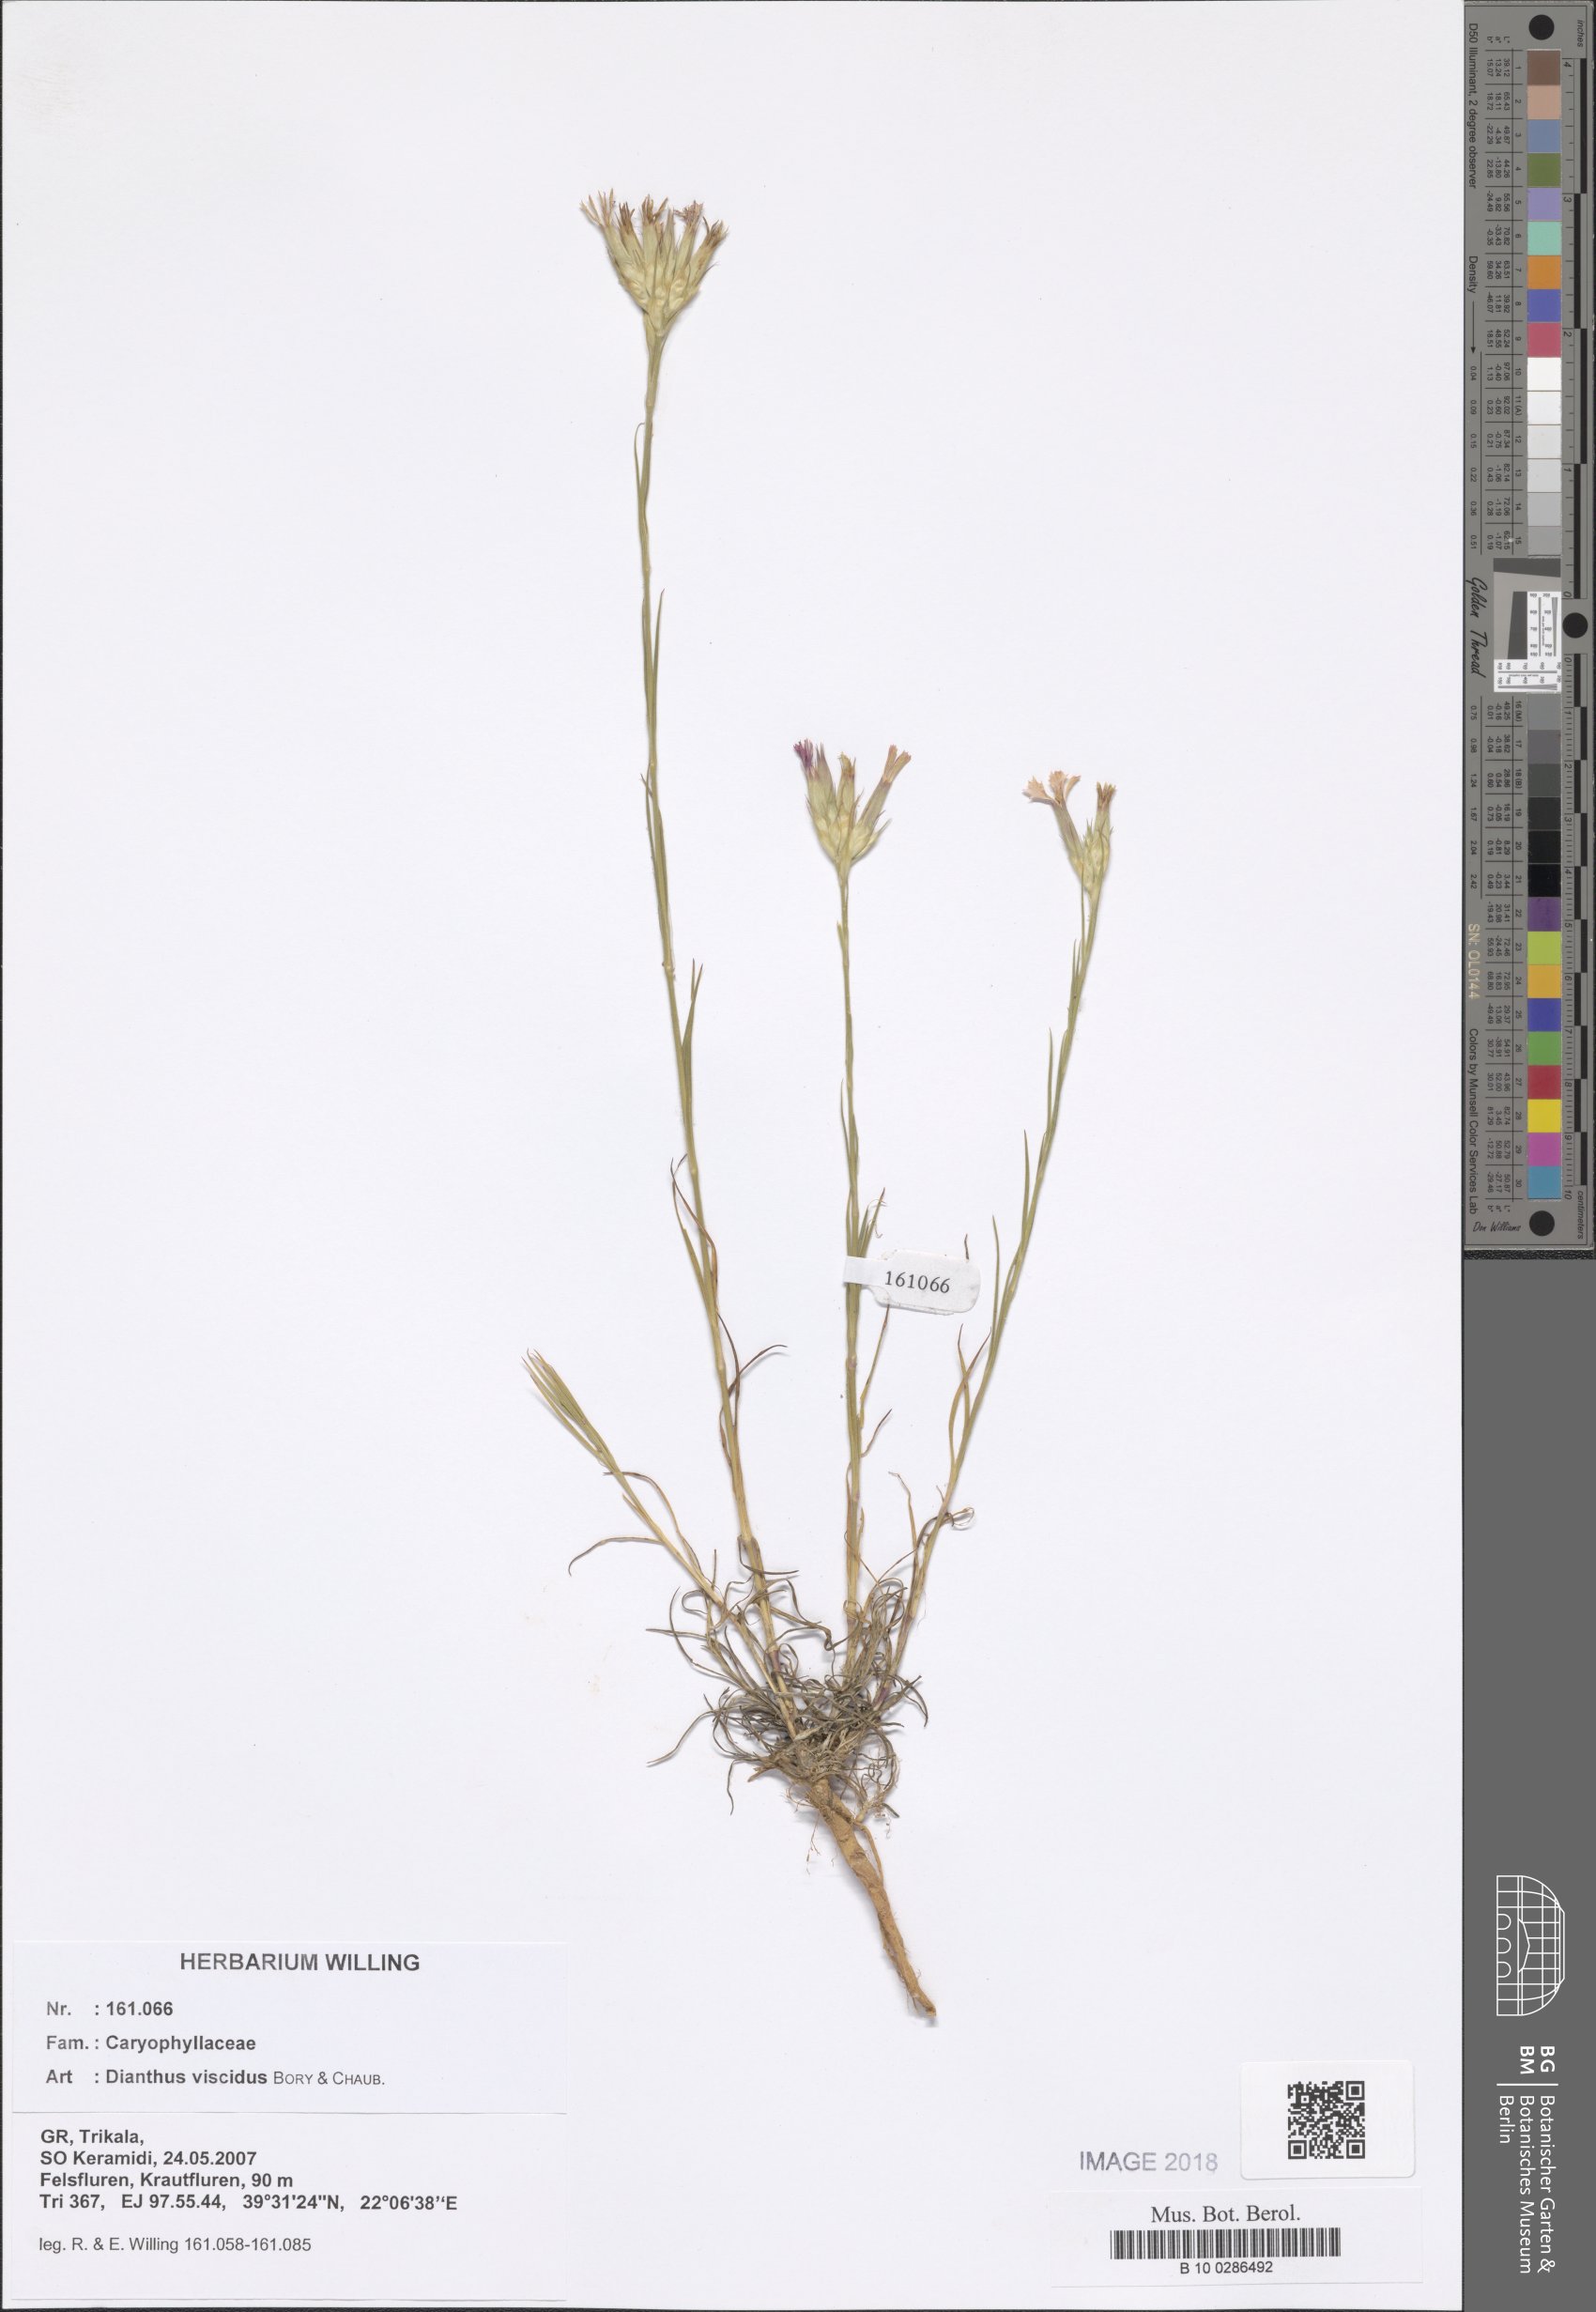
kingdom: Plantae
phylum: Tracheophyta
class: Magnoliopsida
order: Caryophyllales
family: Caryophyllaceae
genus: Dianthus
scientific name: Dianthus viscidus
